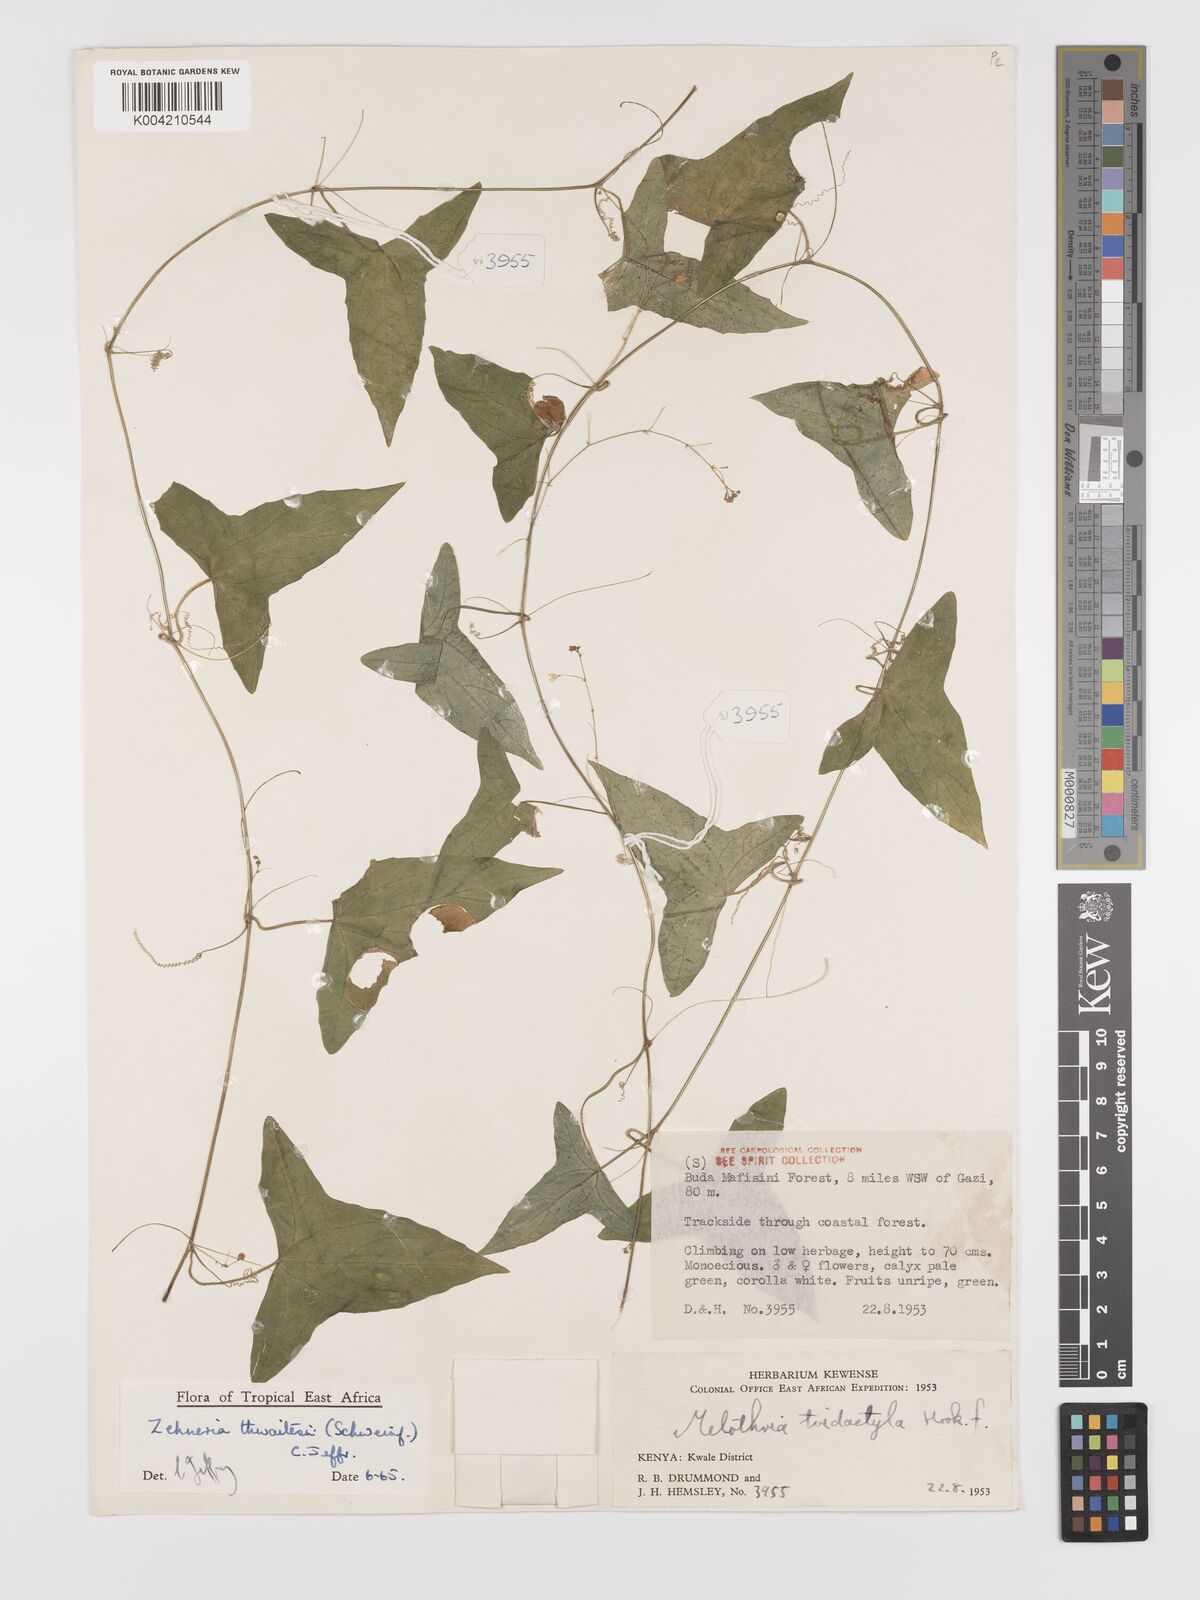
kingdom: Plantae
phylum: Tracheophyta
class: Magnoliopsida
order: Cucurbitales
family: Cucurbitaceae
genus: Zehneria
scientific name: Zehneria thwaitesii
